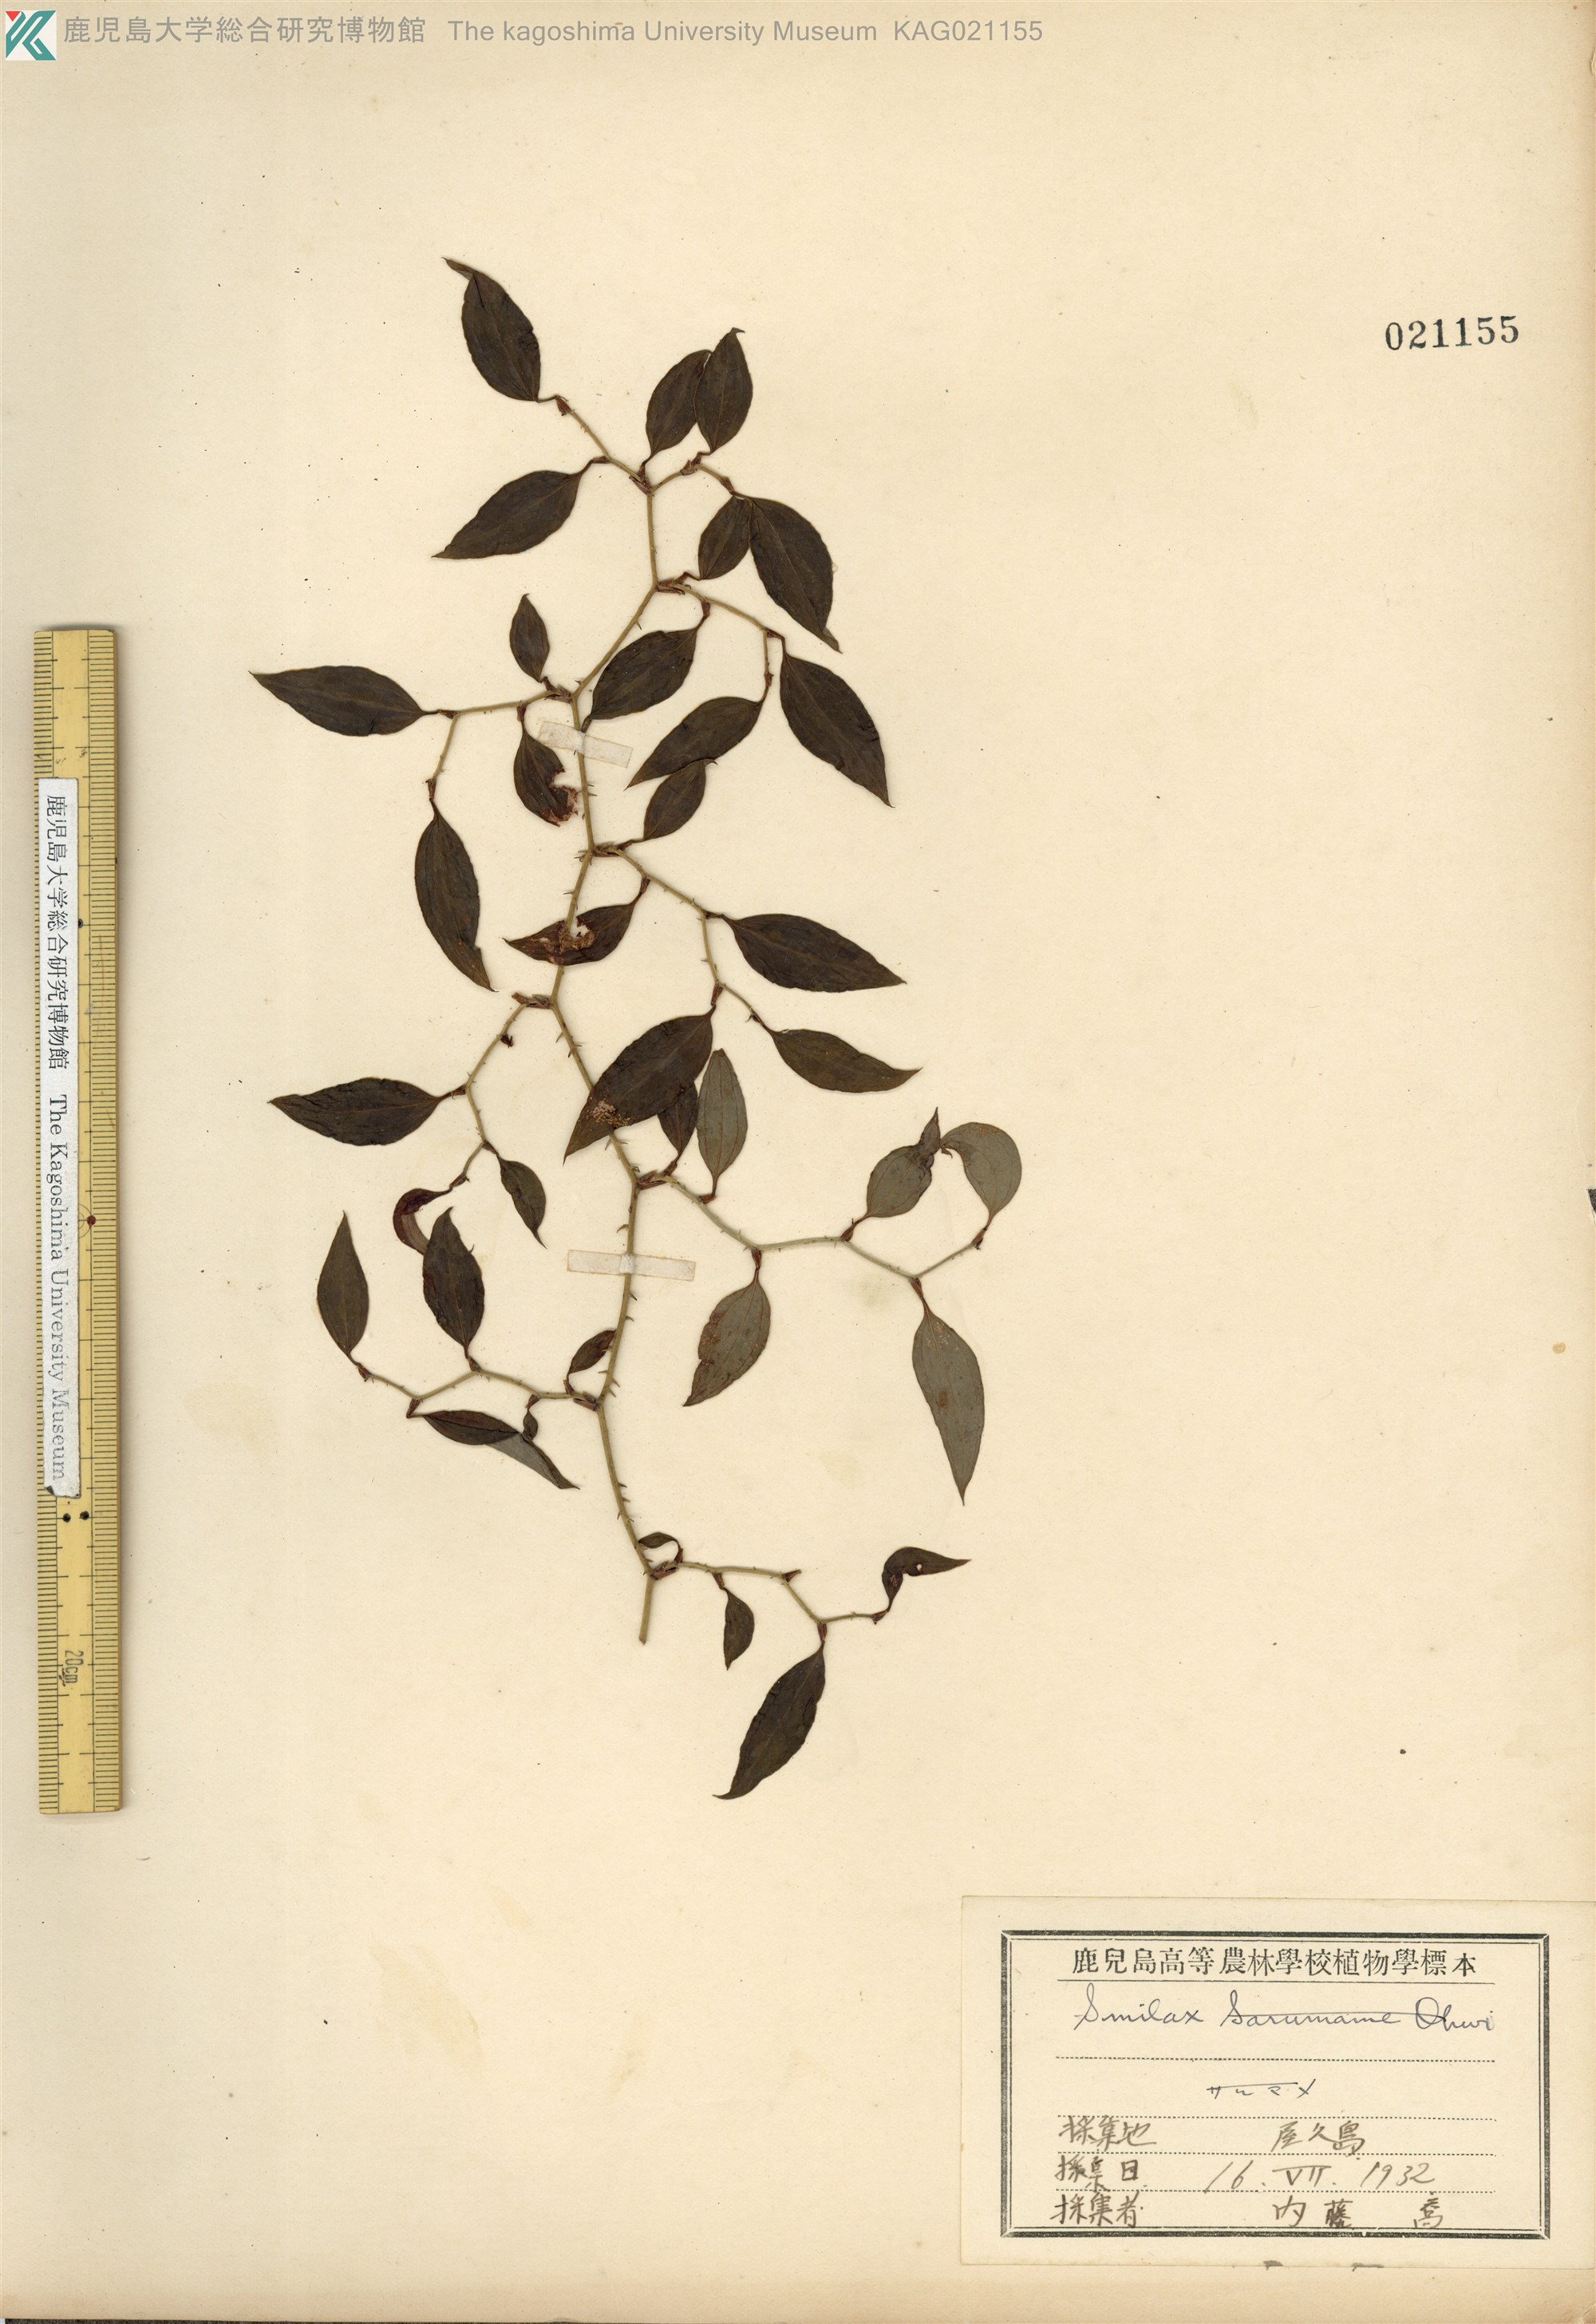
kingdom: Plantae
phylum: Tracheophyta
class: Liliopsida
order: Liliales
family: Smilacaceae
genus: Smilax
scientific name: Smilax china
